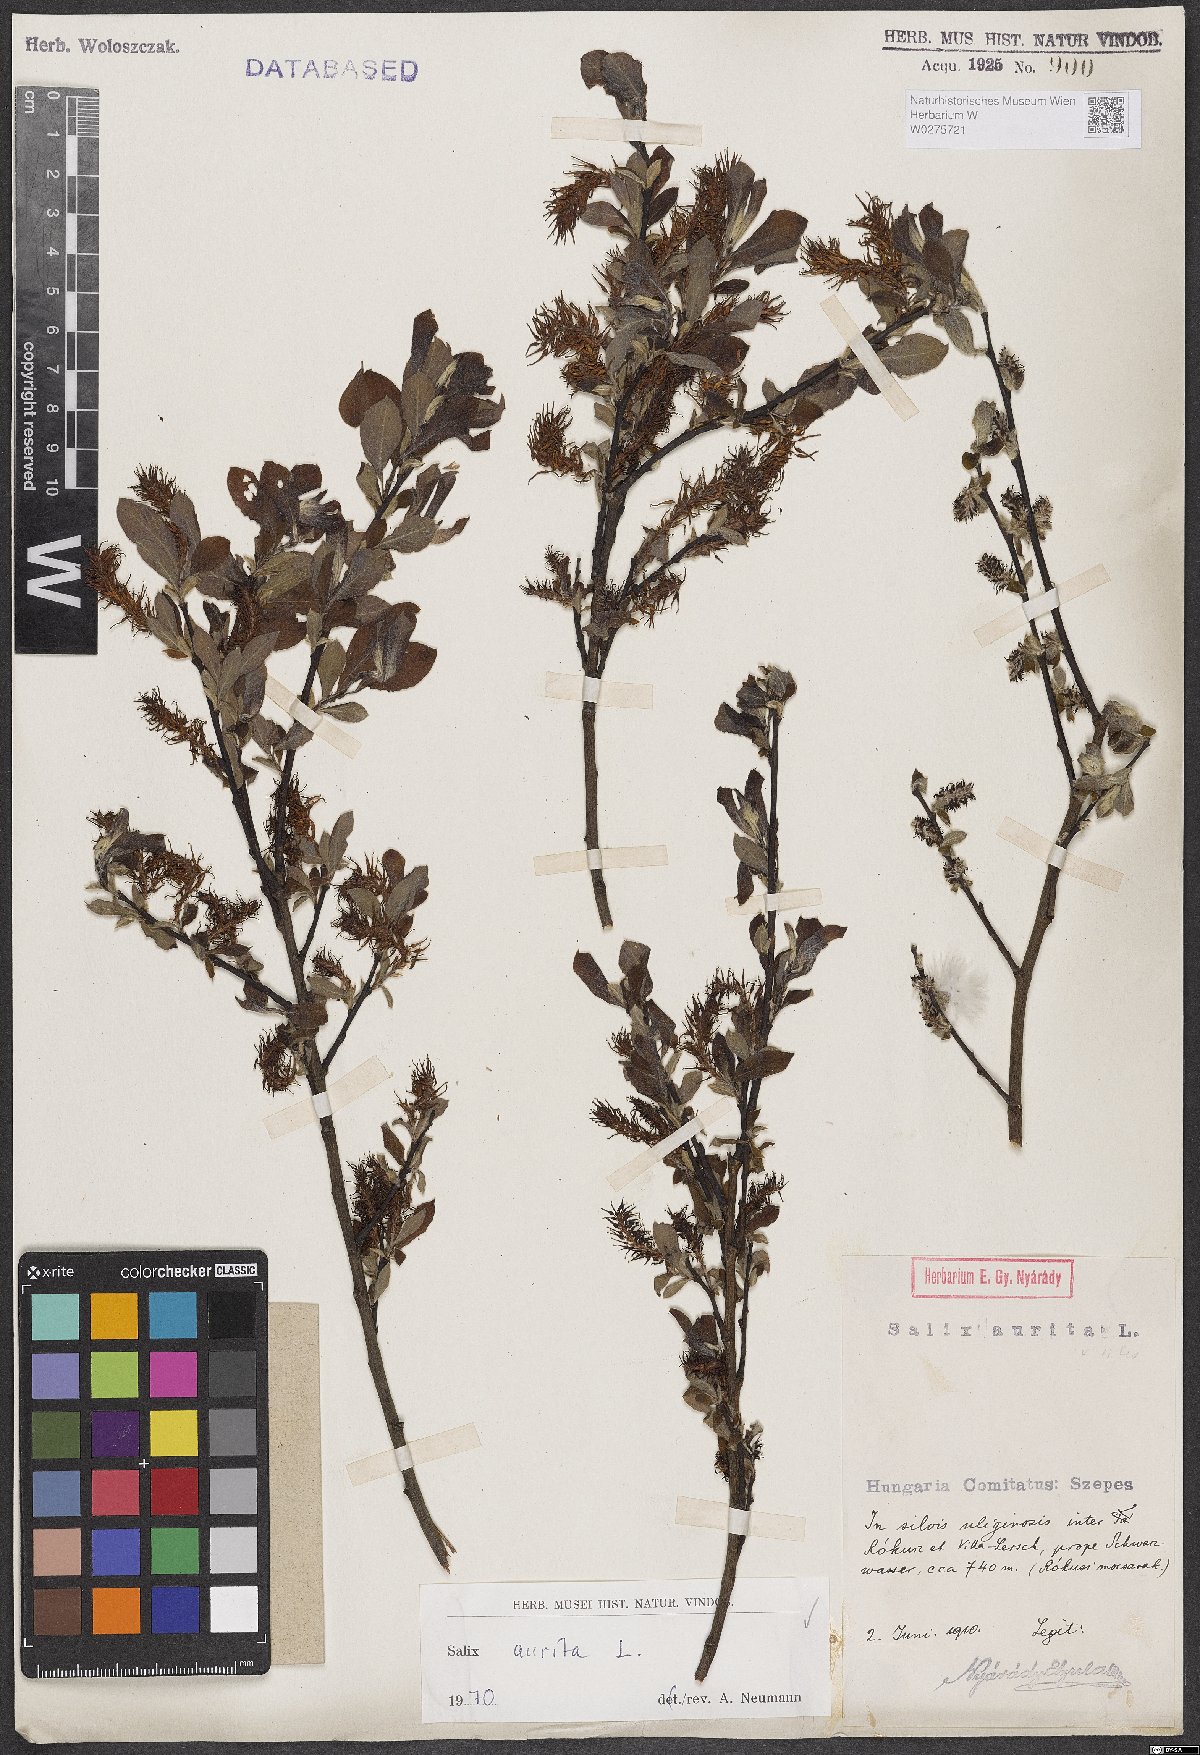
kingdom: Plantae
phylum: Tracheophyta
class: Magnoliopsida
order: Malpighiales
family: Salicaceae
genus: Salix
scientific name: Salix aurita
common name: Eared willow
